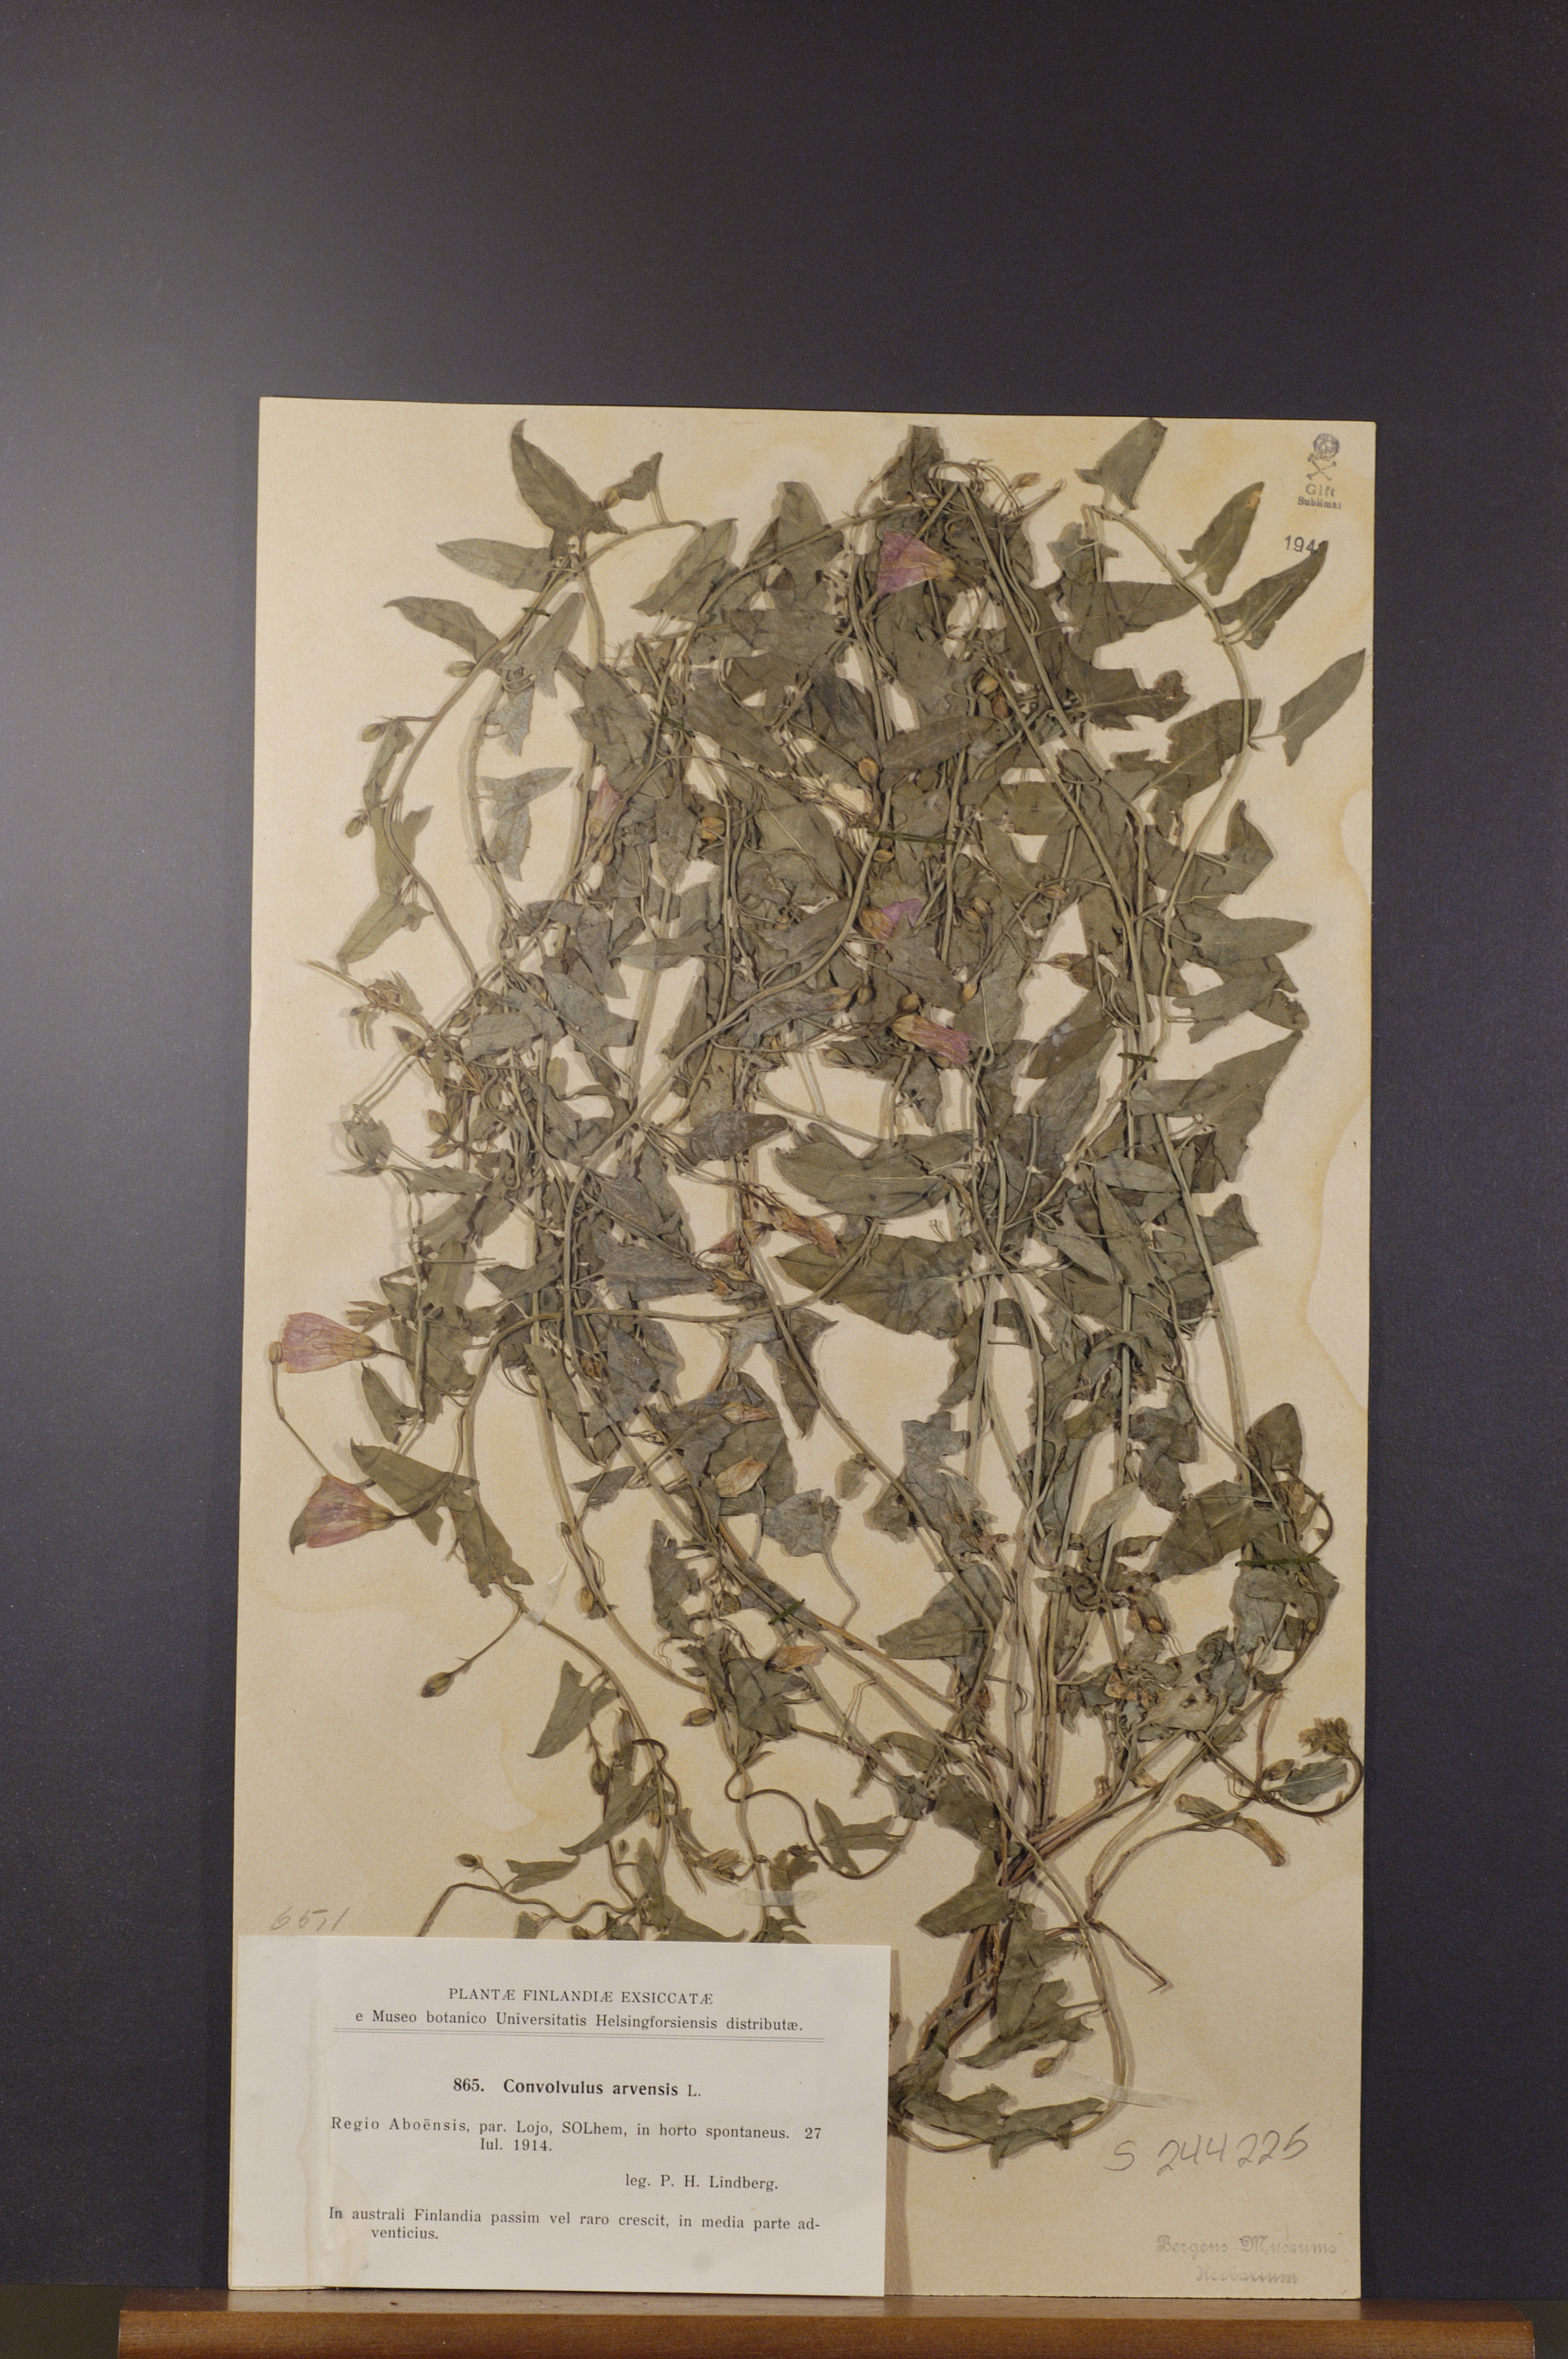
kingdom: Plantae
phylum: Tracheophyta
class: Magnoliopsida
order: Solanales
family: Convolvulaceae
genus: Convolvulus
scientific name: Convolvulus arvensis
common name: Field bindweed
